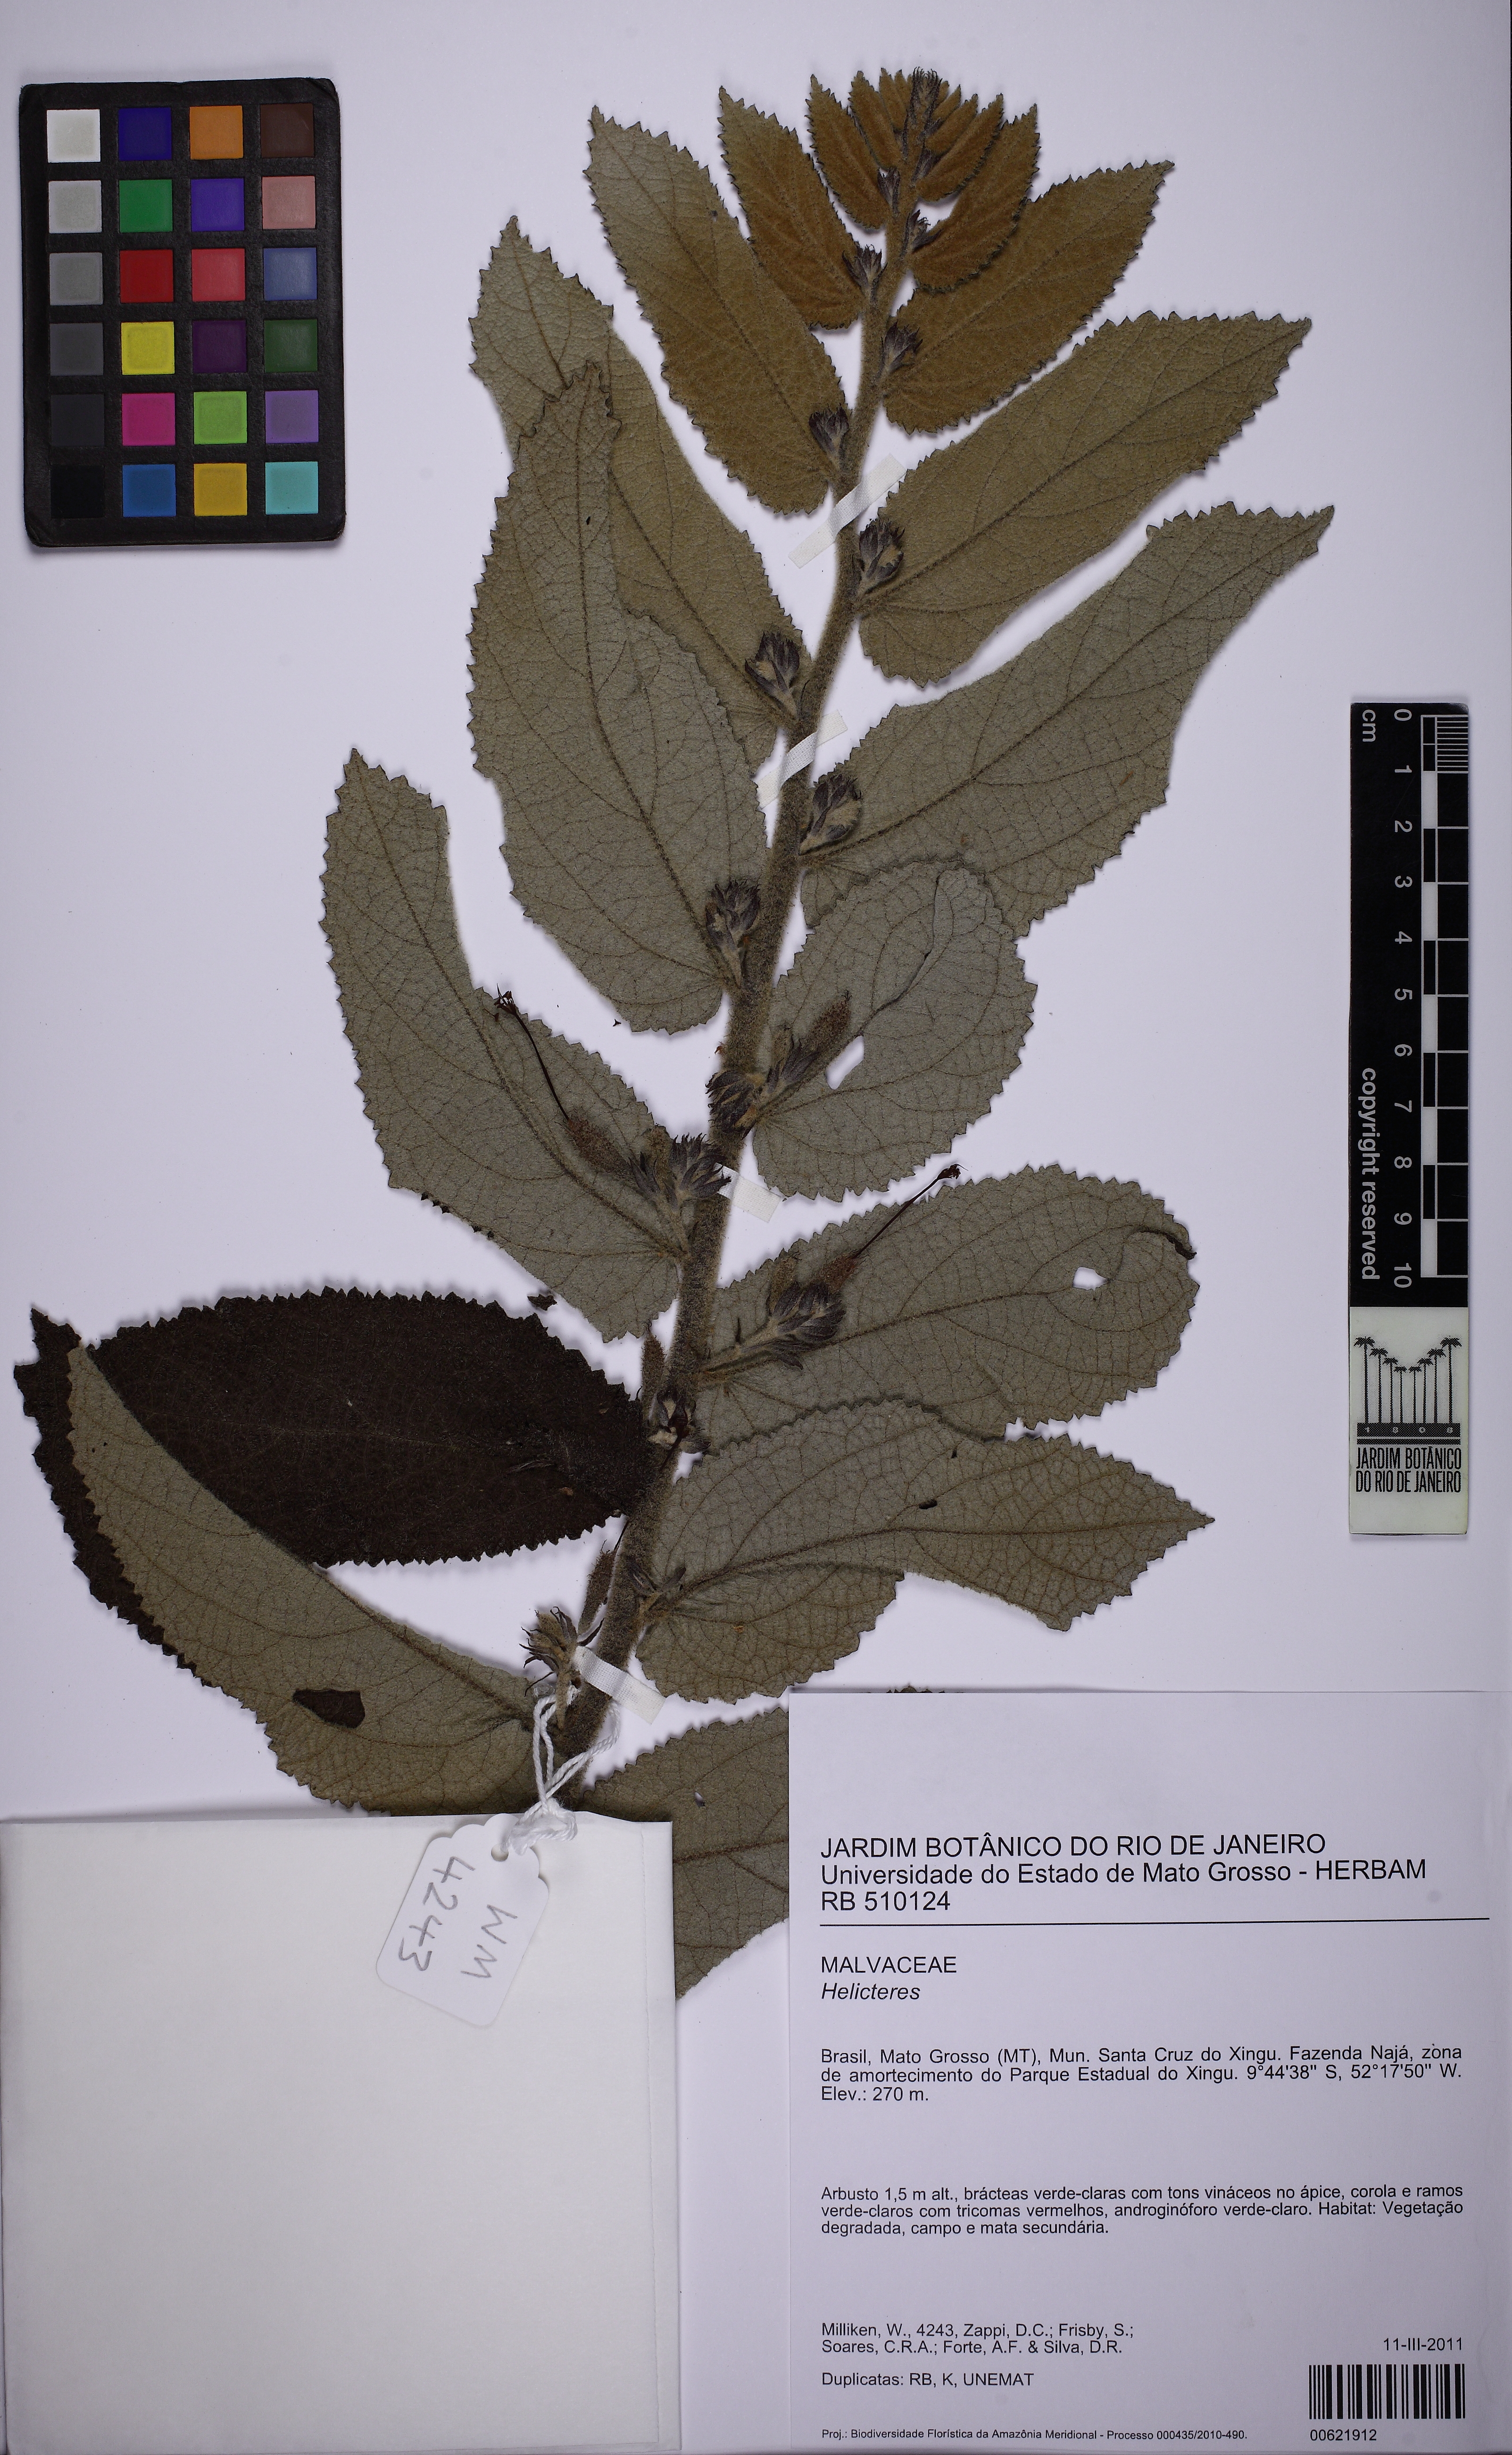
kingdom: Plantae
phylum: Tracheophyta
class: Magnoliopsida
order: Malvales
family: Malvaceae
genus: Helicteres
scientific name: Helicteres
